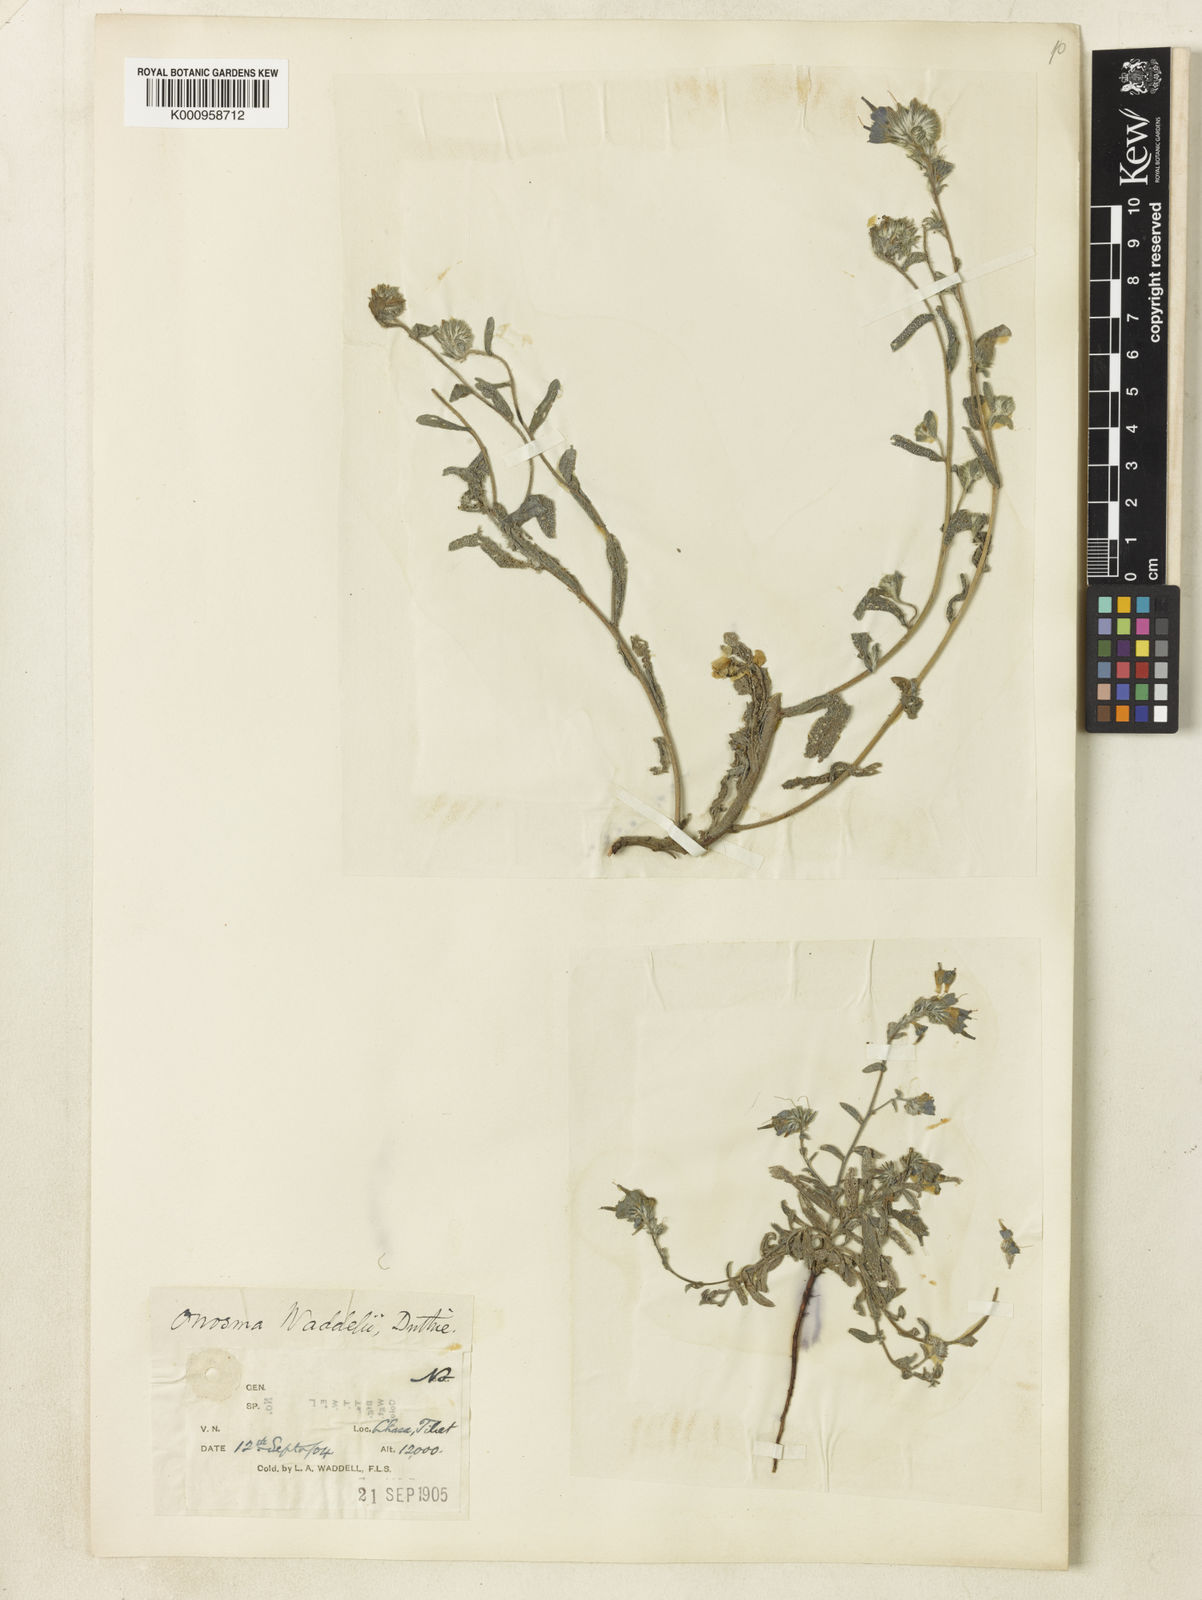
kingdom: Plantae
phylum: Tracheophyta
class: Magnoliopsida
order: Boraginales
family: Boraginaceae
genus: Maharanga
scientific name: Maharanga waddellii
